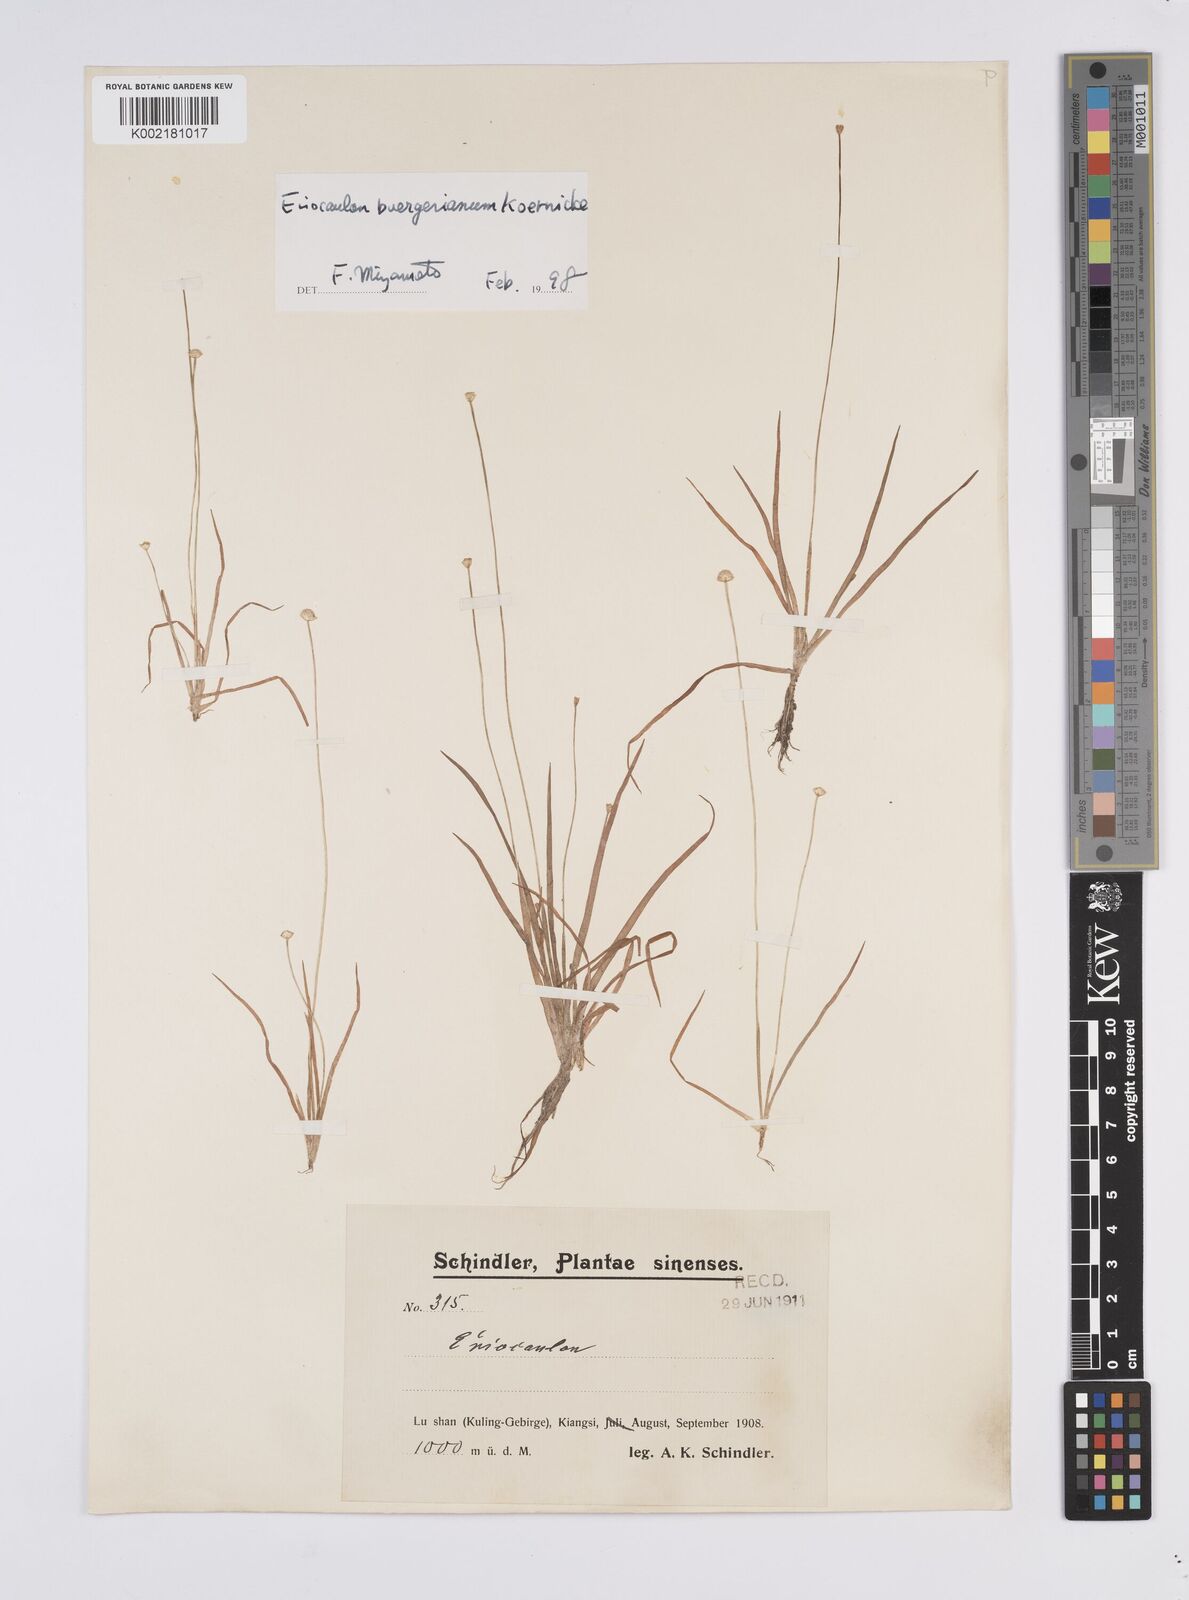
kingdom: Plantae
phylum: Tracheophyta
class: Liliopsida
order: Poales
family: Eriocaulaceae
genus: Eriocaulon
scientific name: Eriocaulon buergerianum
